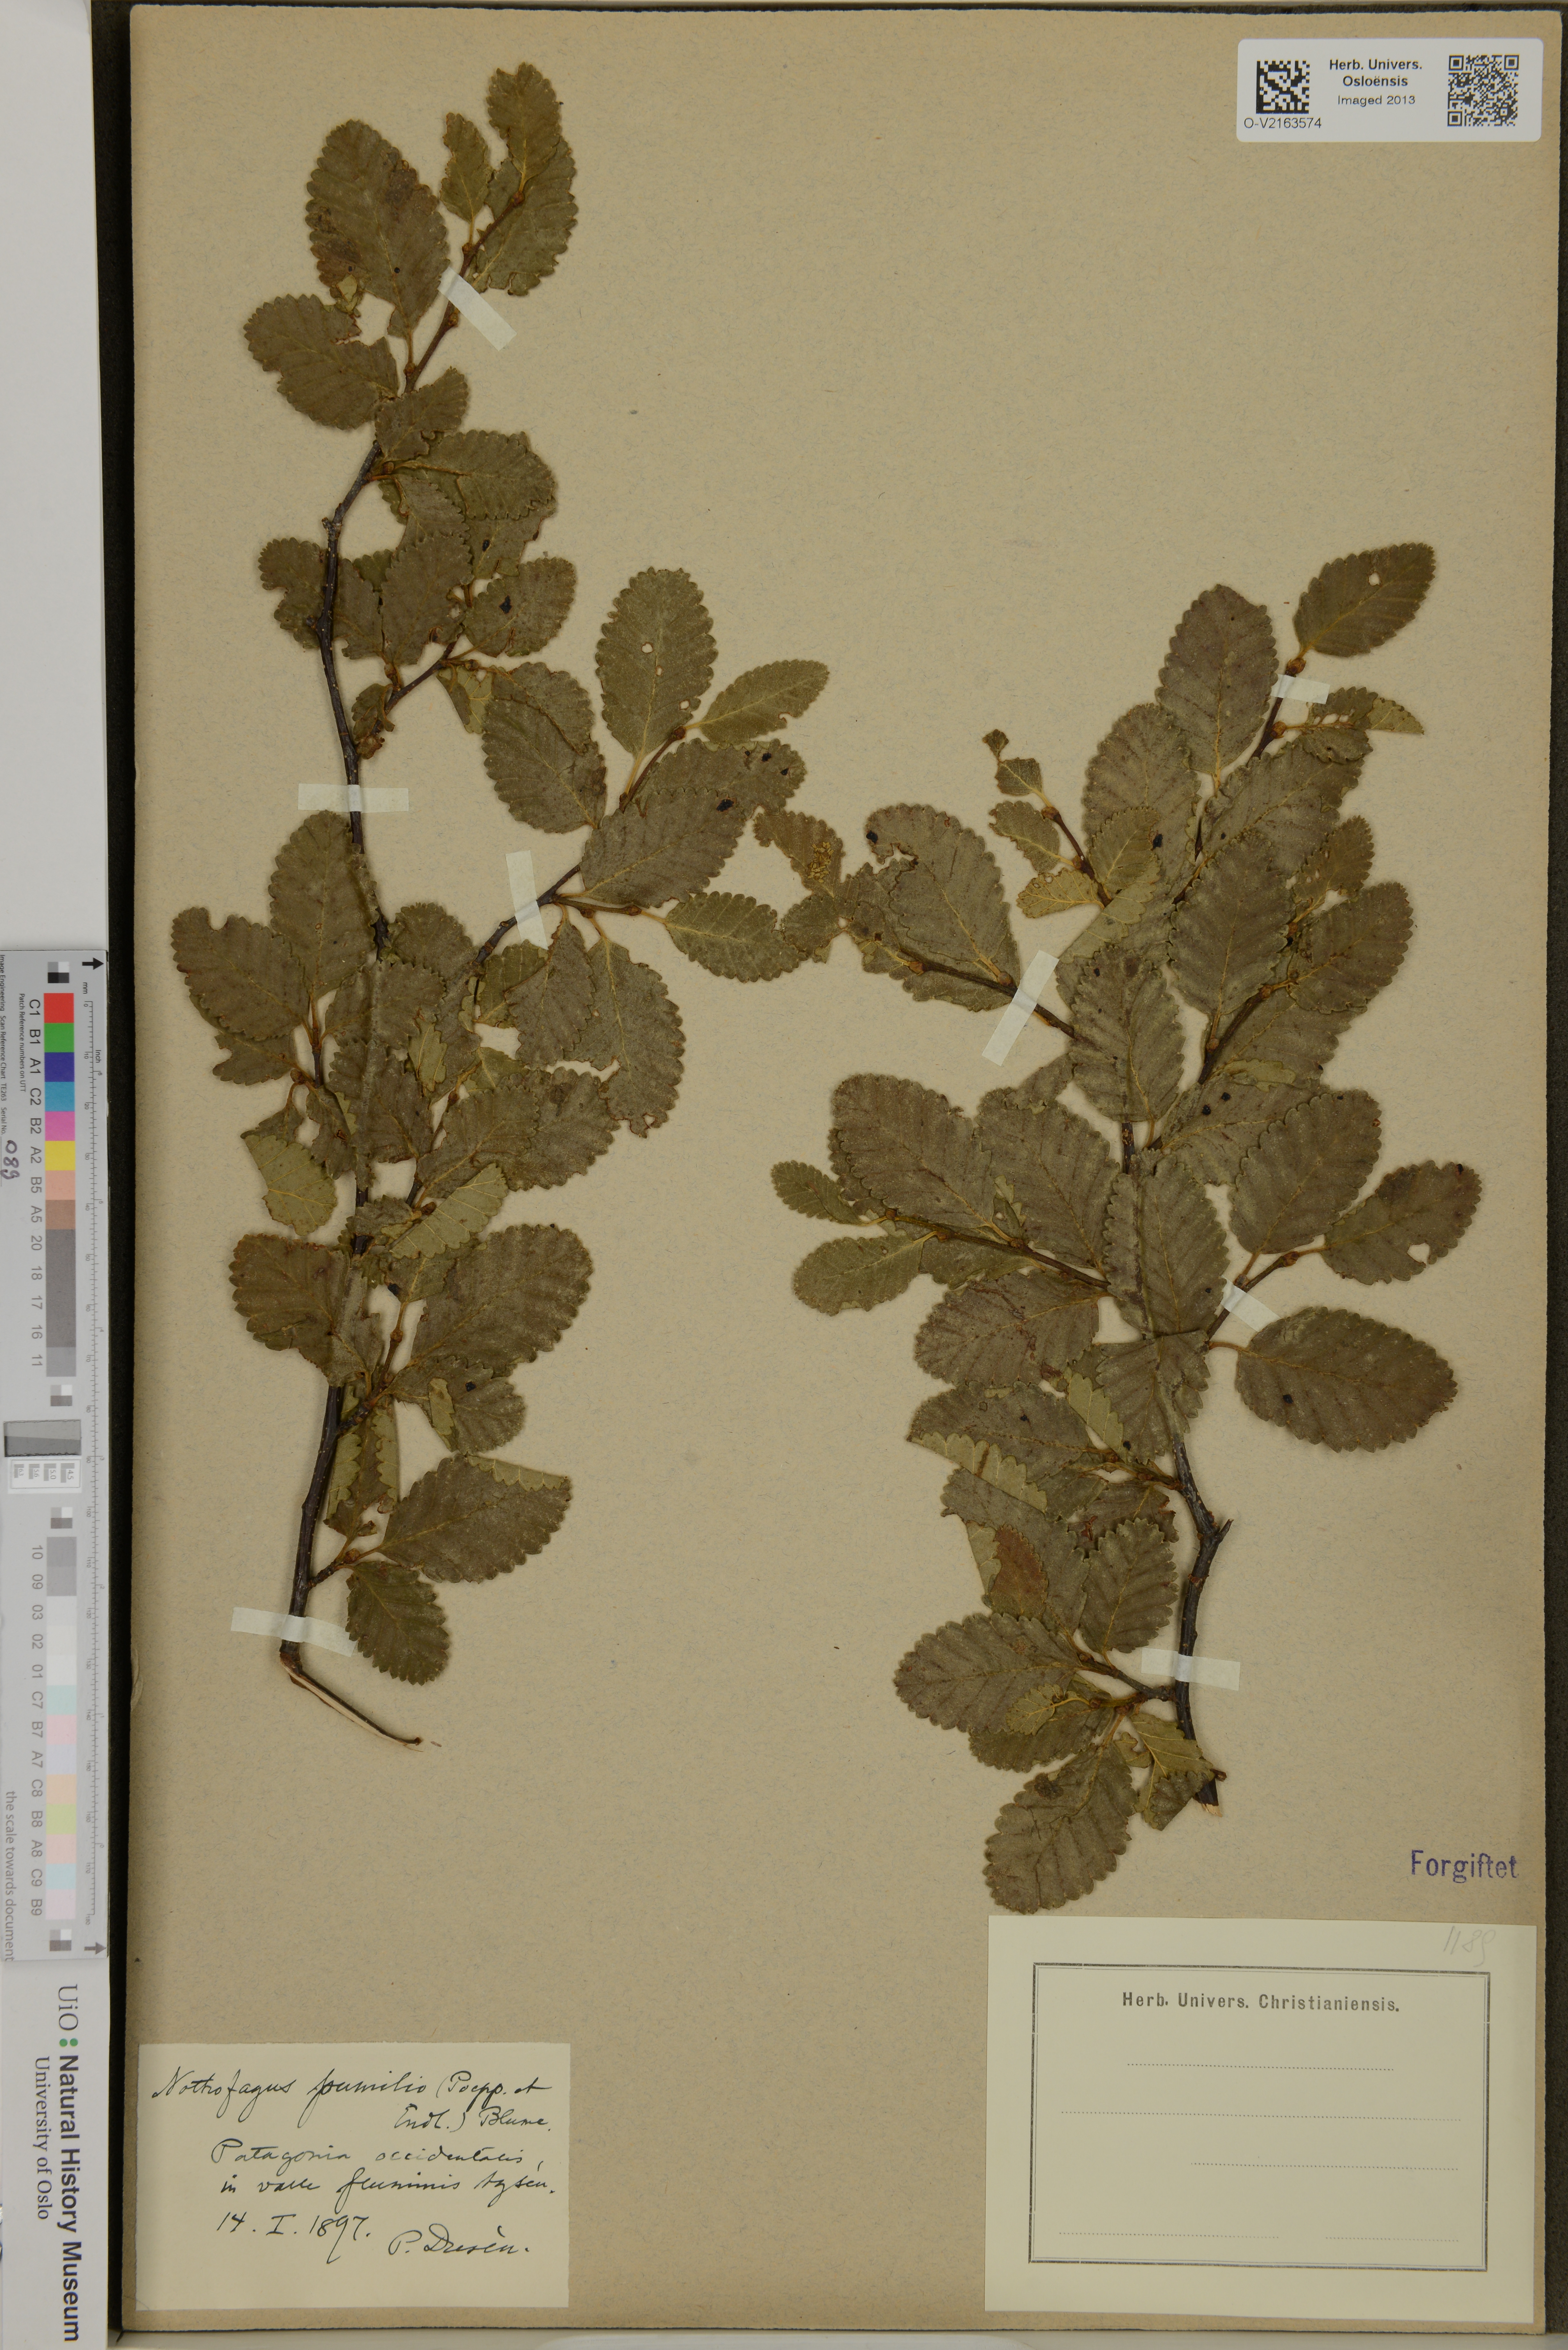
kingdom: Plantae
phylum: Tracheophyta
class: Magnoliopsida
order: Fagales
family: Nothofagaceae
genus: Nothofagus
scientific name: Nothofagus pumilio
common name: Lenga beech
